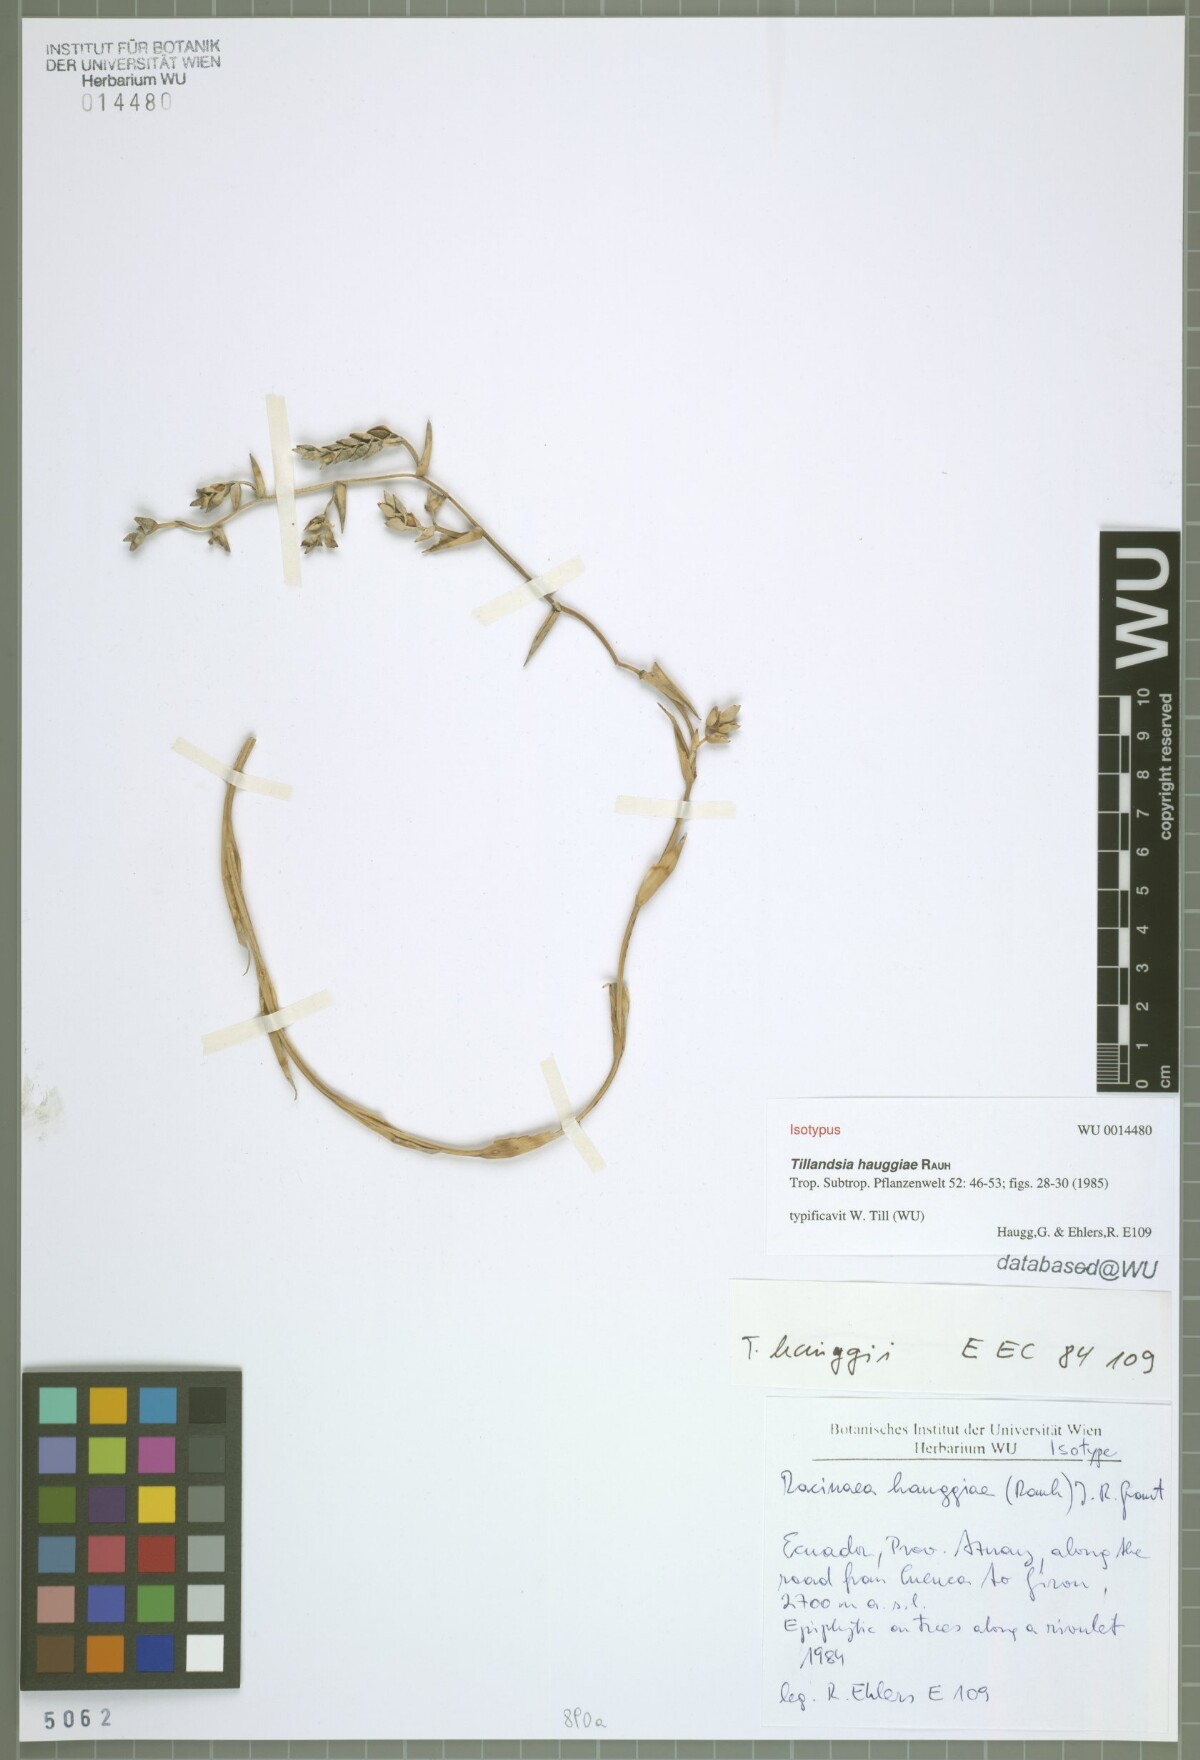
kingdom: Plantae
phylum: Tracheophyta
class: Liliopsida
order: Poales
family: Bromeliaceae
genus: Racinaea
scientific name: Racinaea hauggiae
